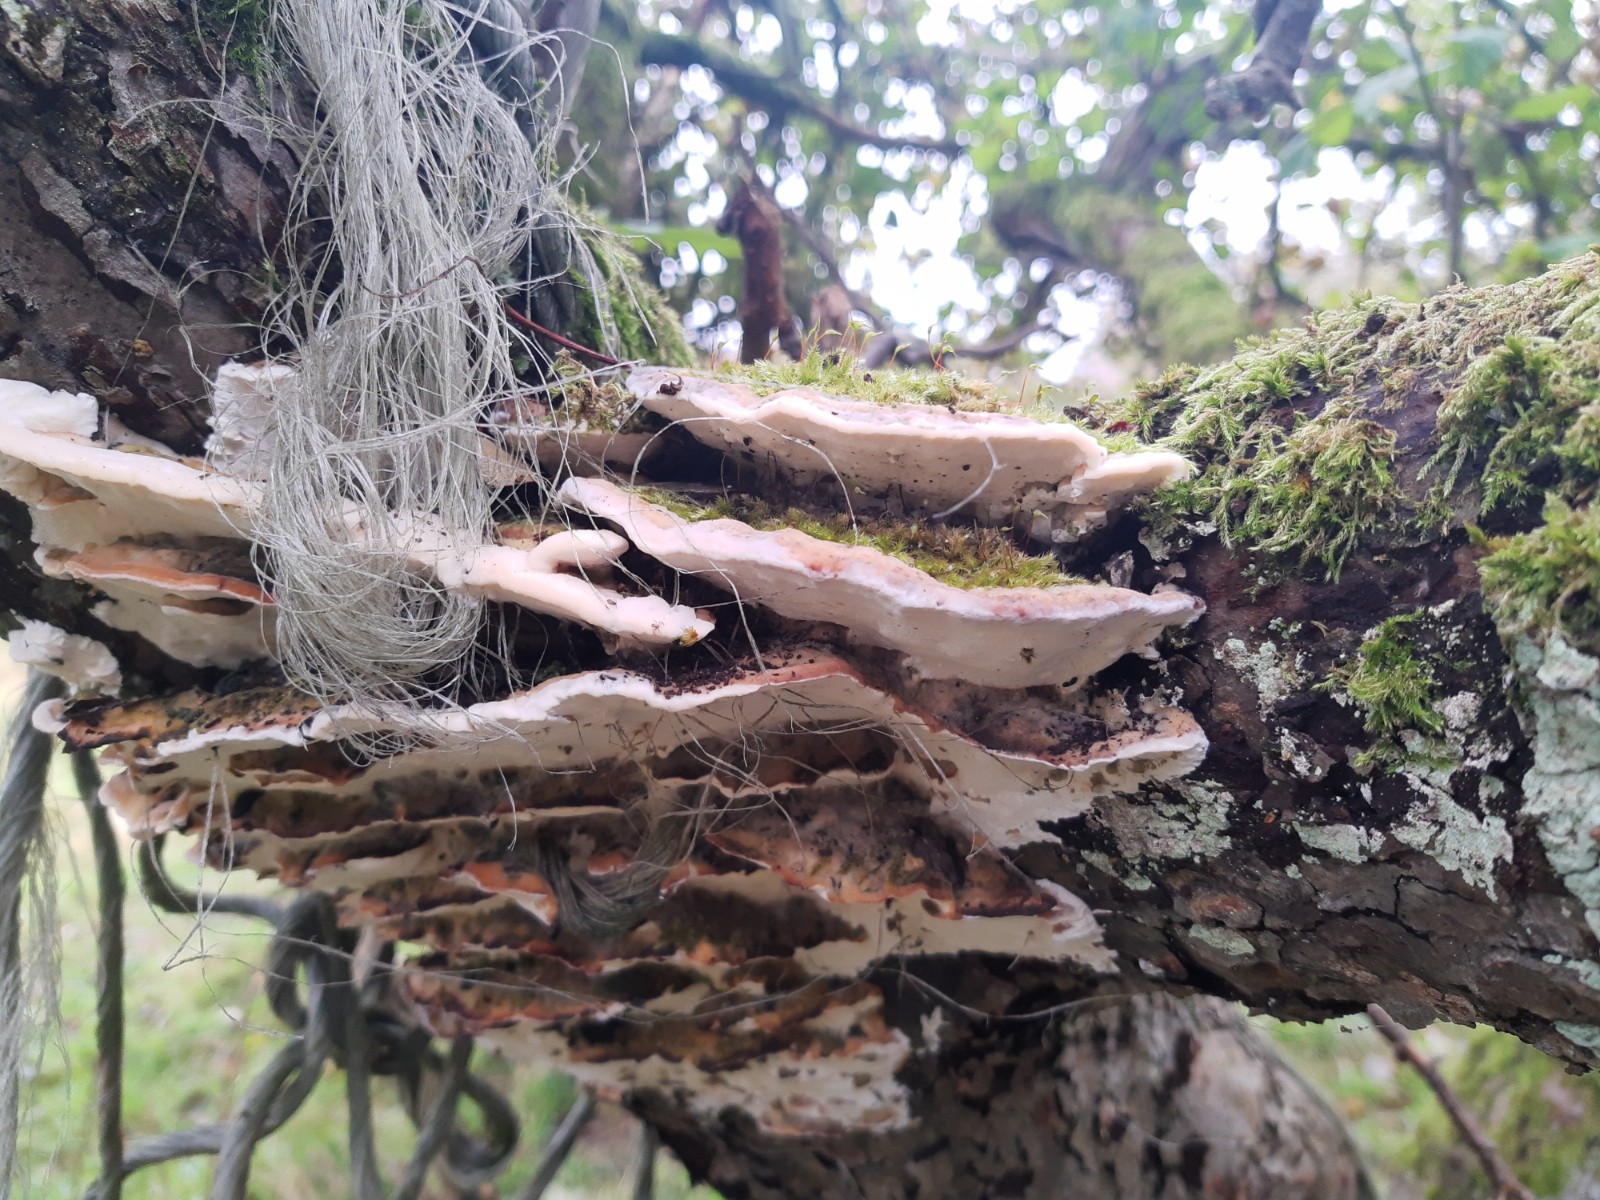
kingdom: Fungi
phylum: Basidiomycota
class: Agaricomycetes
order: Hymenochaetales
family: Oxyporaceae
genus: Oxyporus
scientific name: Oxyporus populinus
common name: sammenvokset trylleporesvamp
